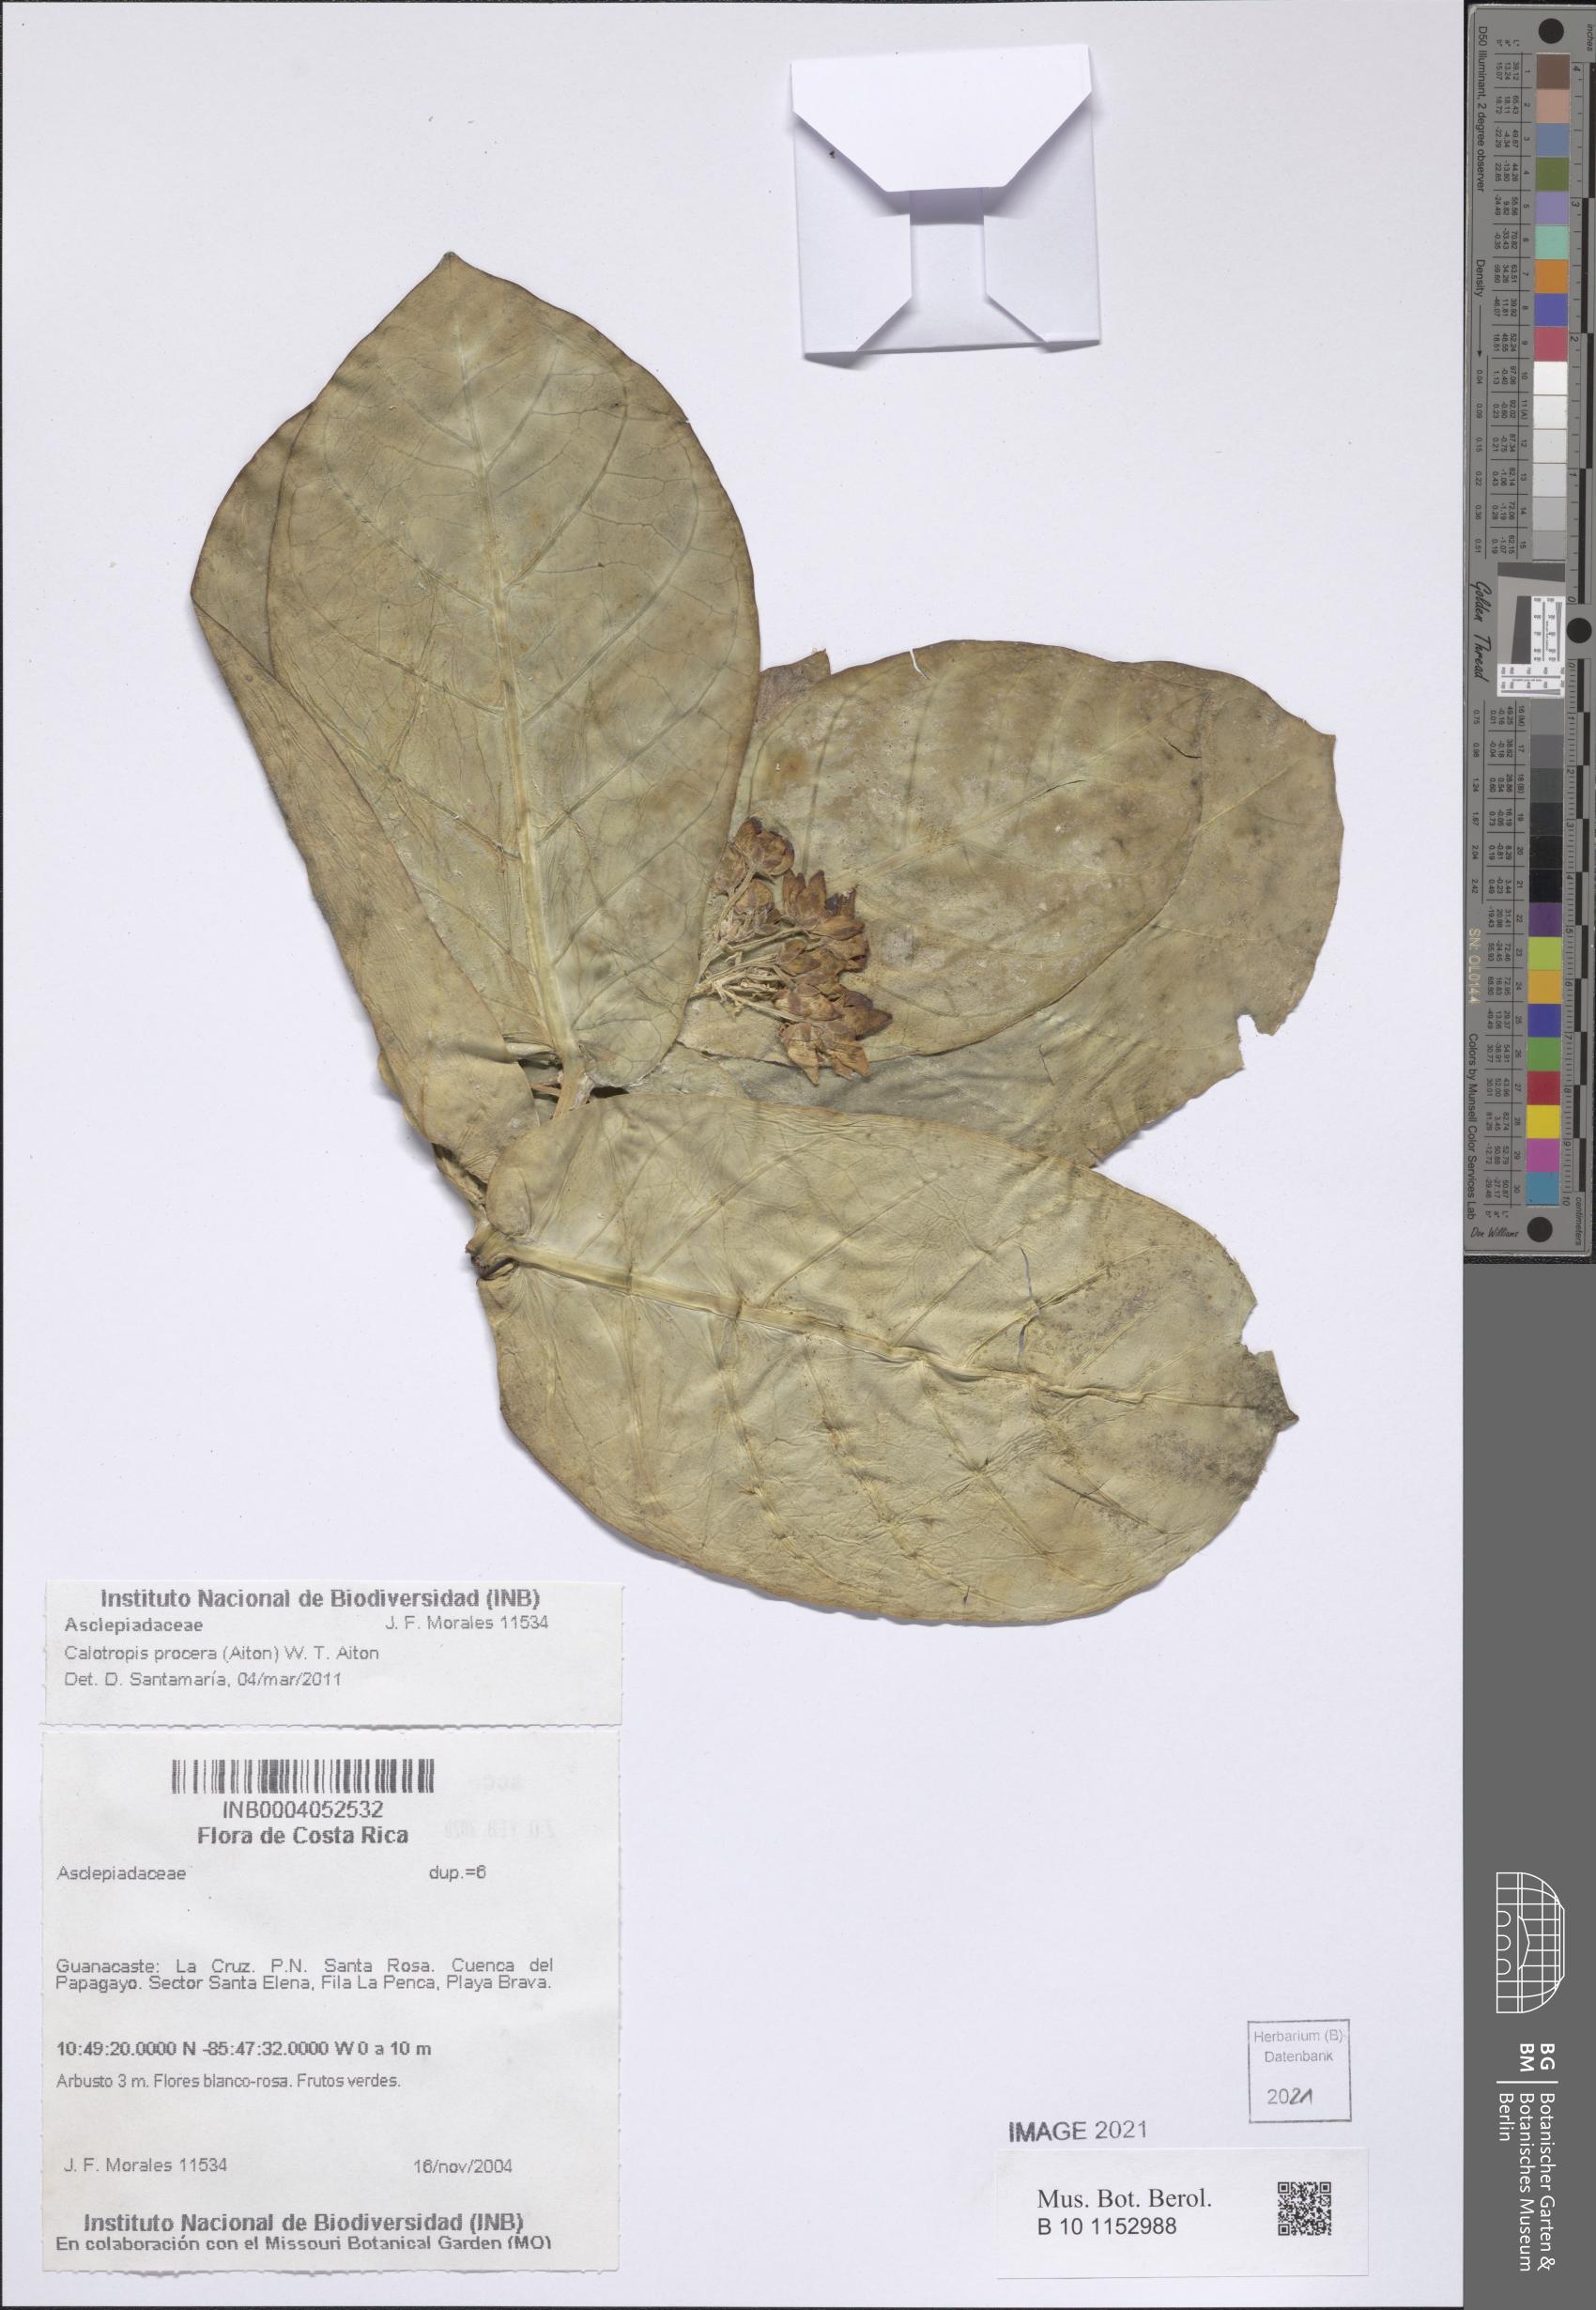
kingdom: Plantae
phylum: Tracheophyta
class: Magnoliopsida
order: Gentianales
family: Apocynaceae
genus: Calotropis
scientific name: Calotropis procera
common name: Roostertree
